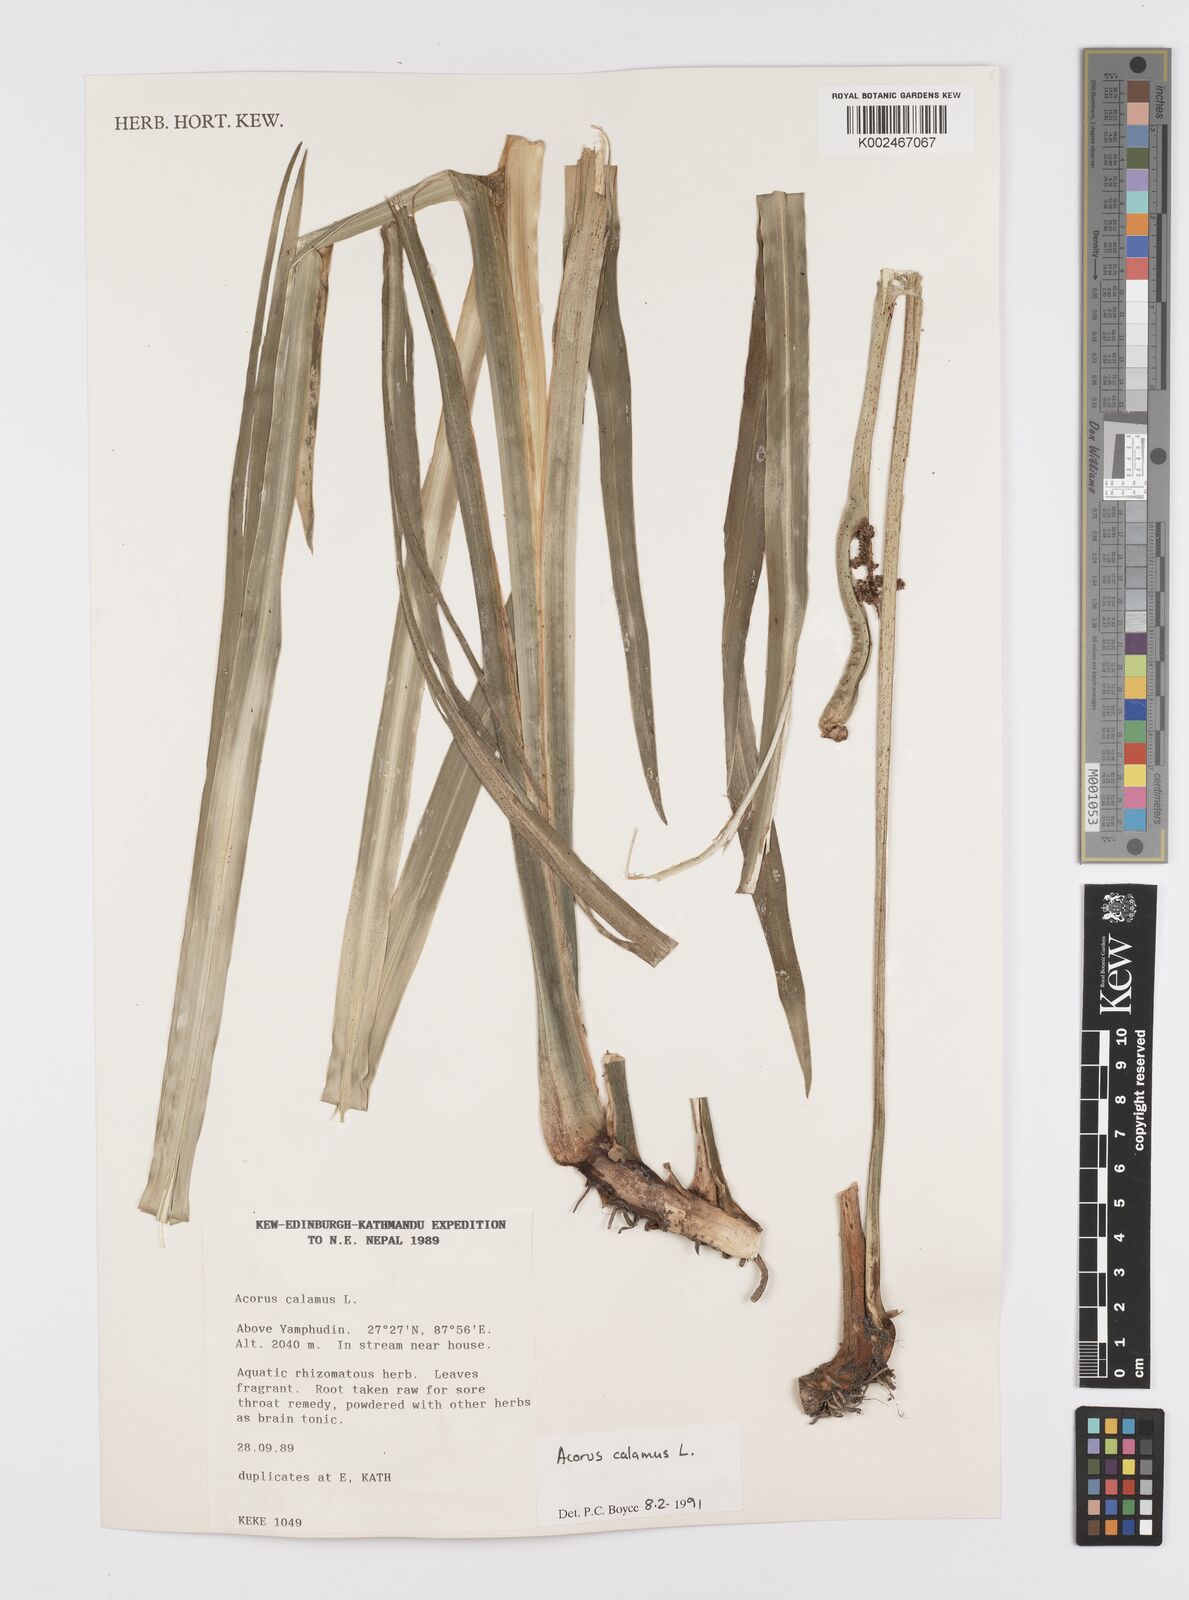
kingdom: Plantae
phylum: Tracheophyta
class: Liliopsida
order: Acorales
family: Acoraceae
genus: Acorus
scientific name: Acorus calamus
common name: Sweet-flag
